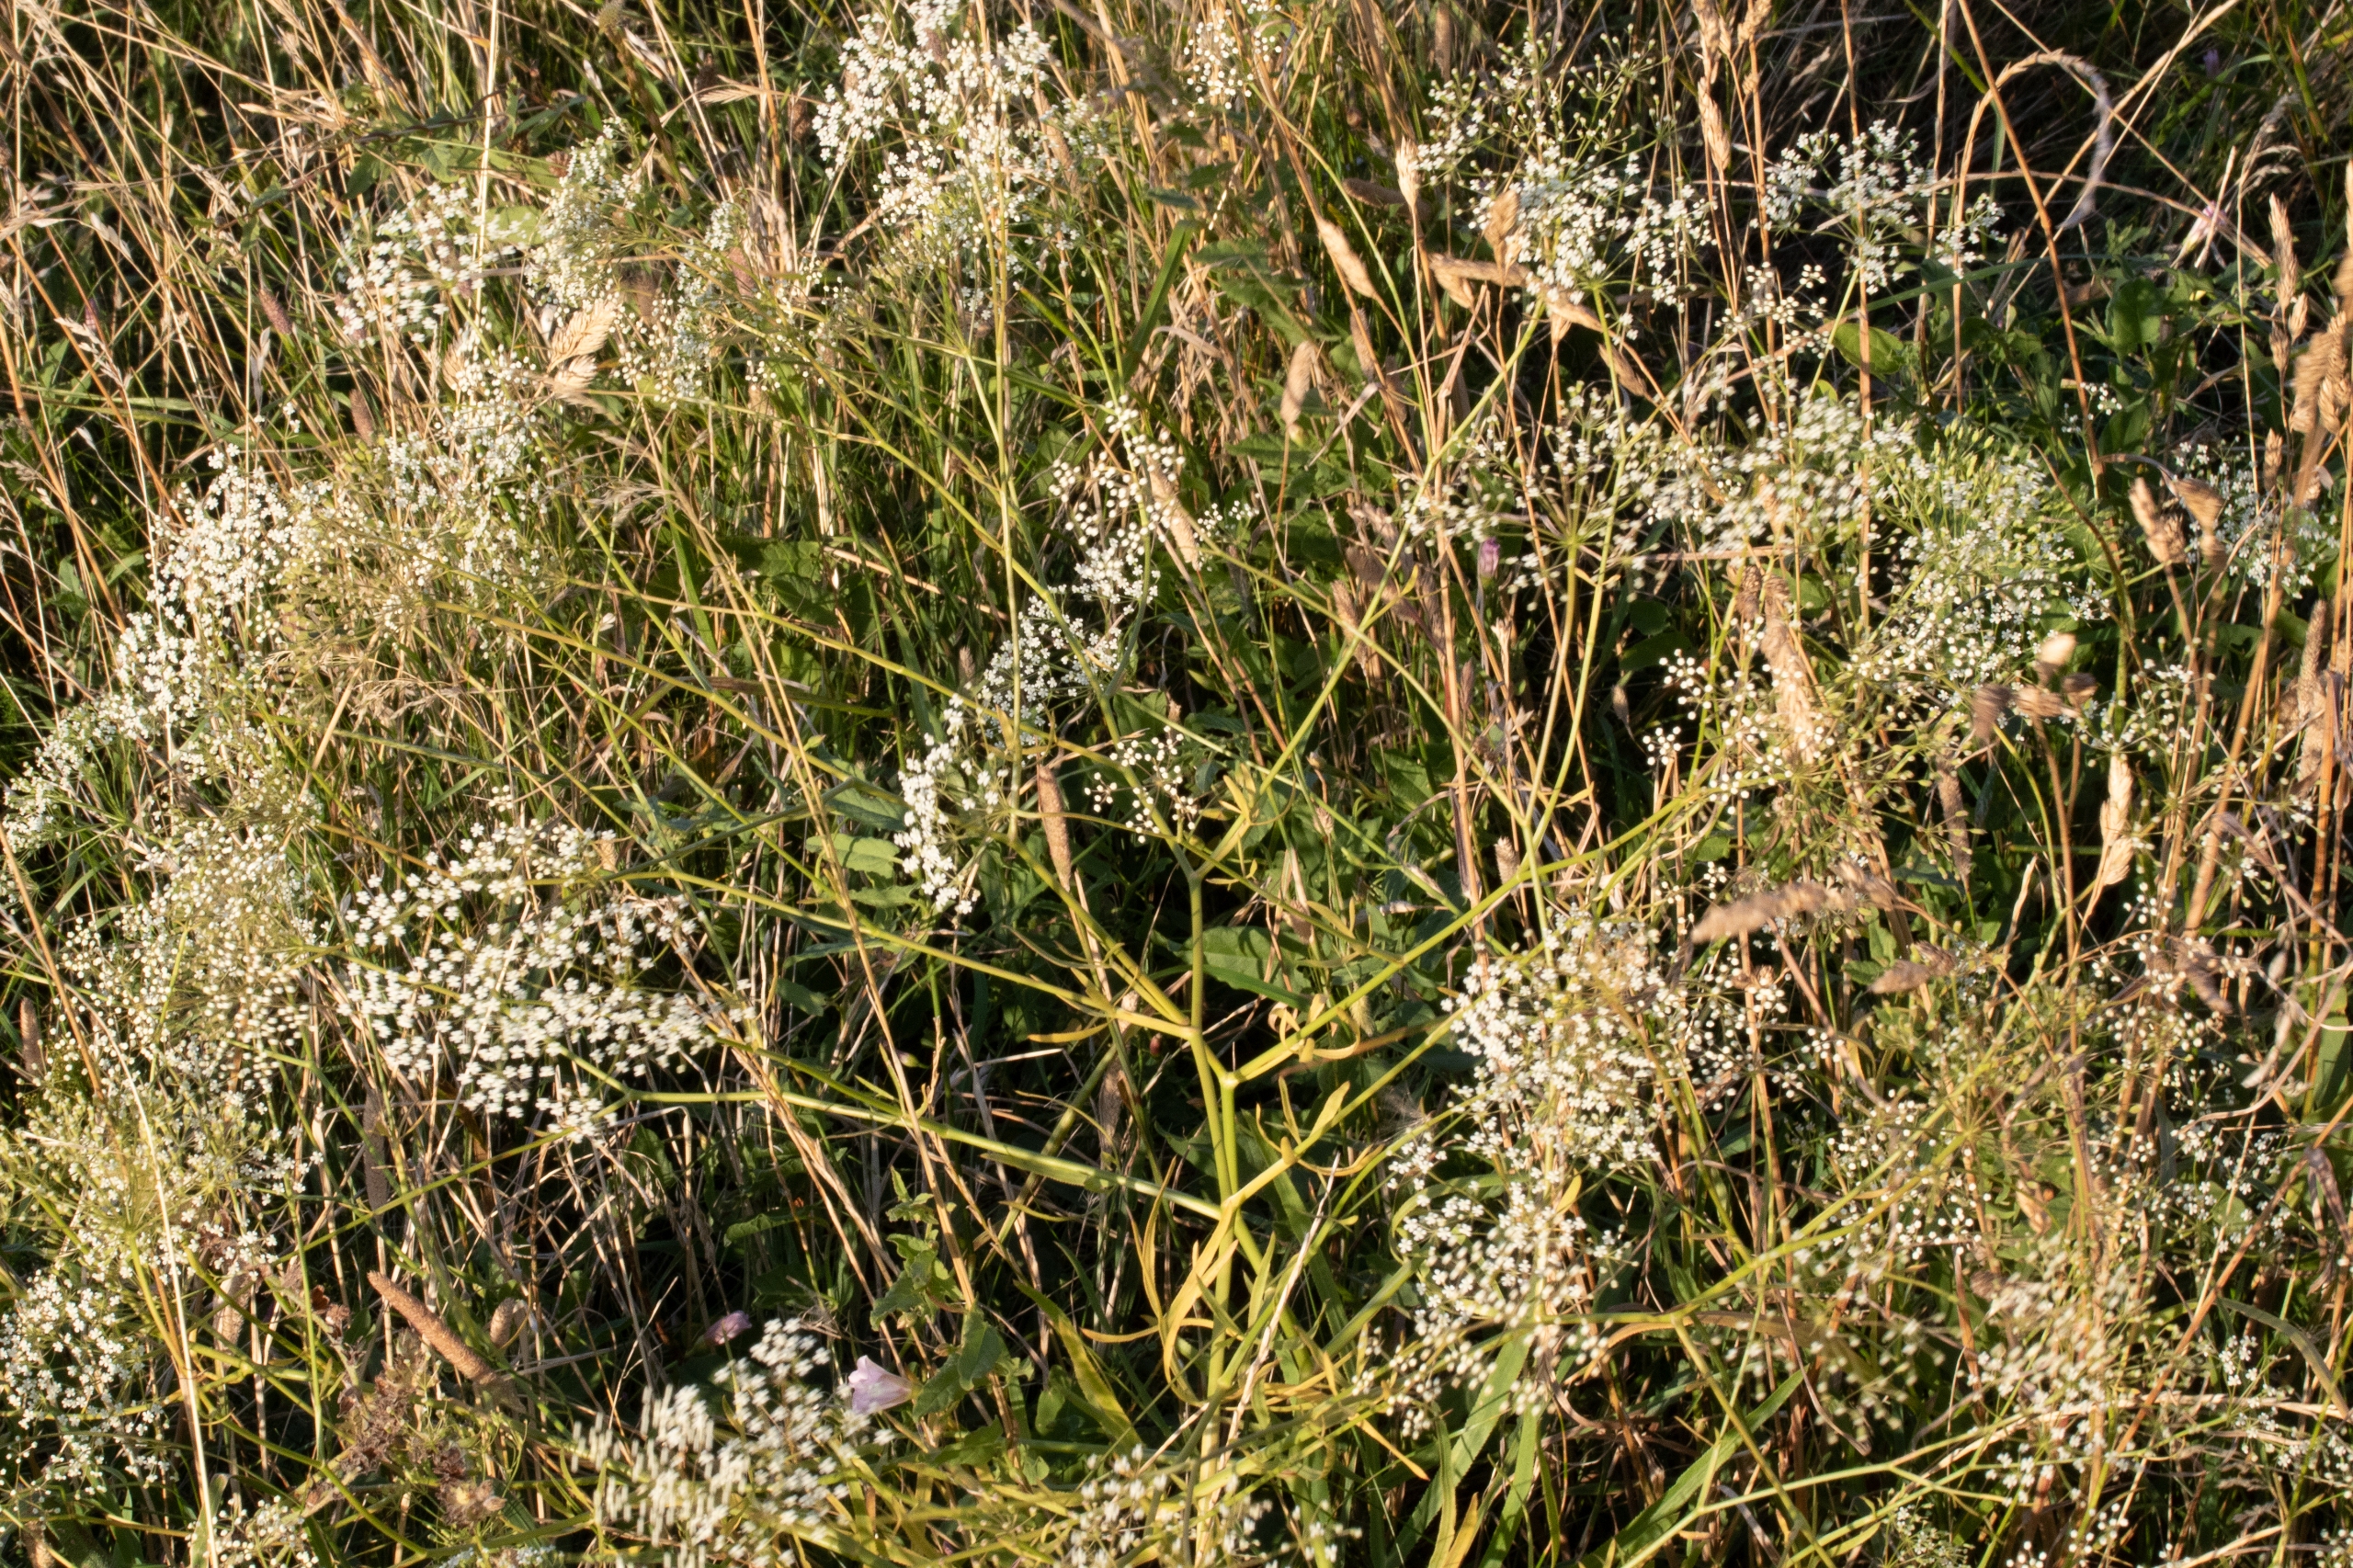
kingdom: Plantae
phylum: Tracheophyta
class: Magnoliopsida
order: Apiales
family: Apiaceae
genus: Falcaria
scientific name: Falcaria vulgaris
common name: Seglblad
